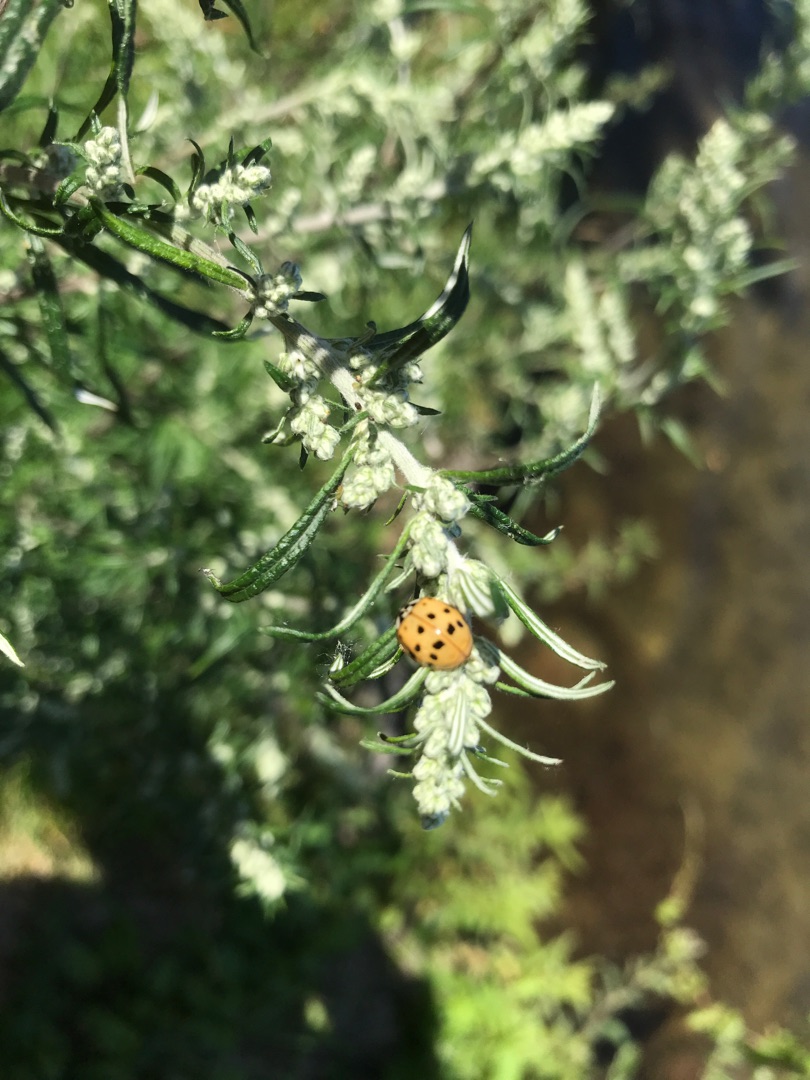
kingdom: Animalia
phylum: Arthropoda
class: Insecta
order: Coleoptera
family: Coccinellidae
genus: Harmonia
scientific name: Harmonia axyridis
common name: Harlekinmariehøne
